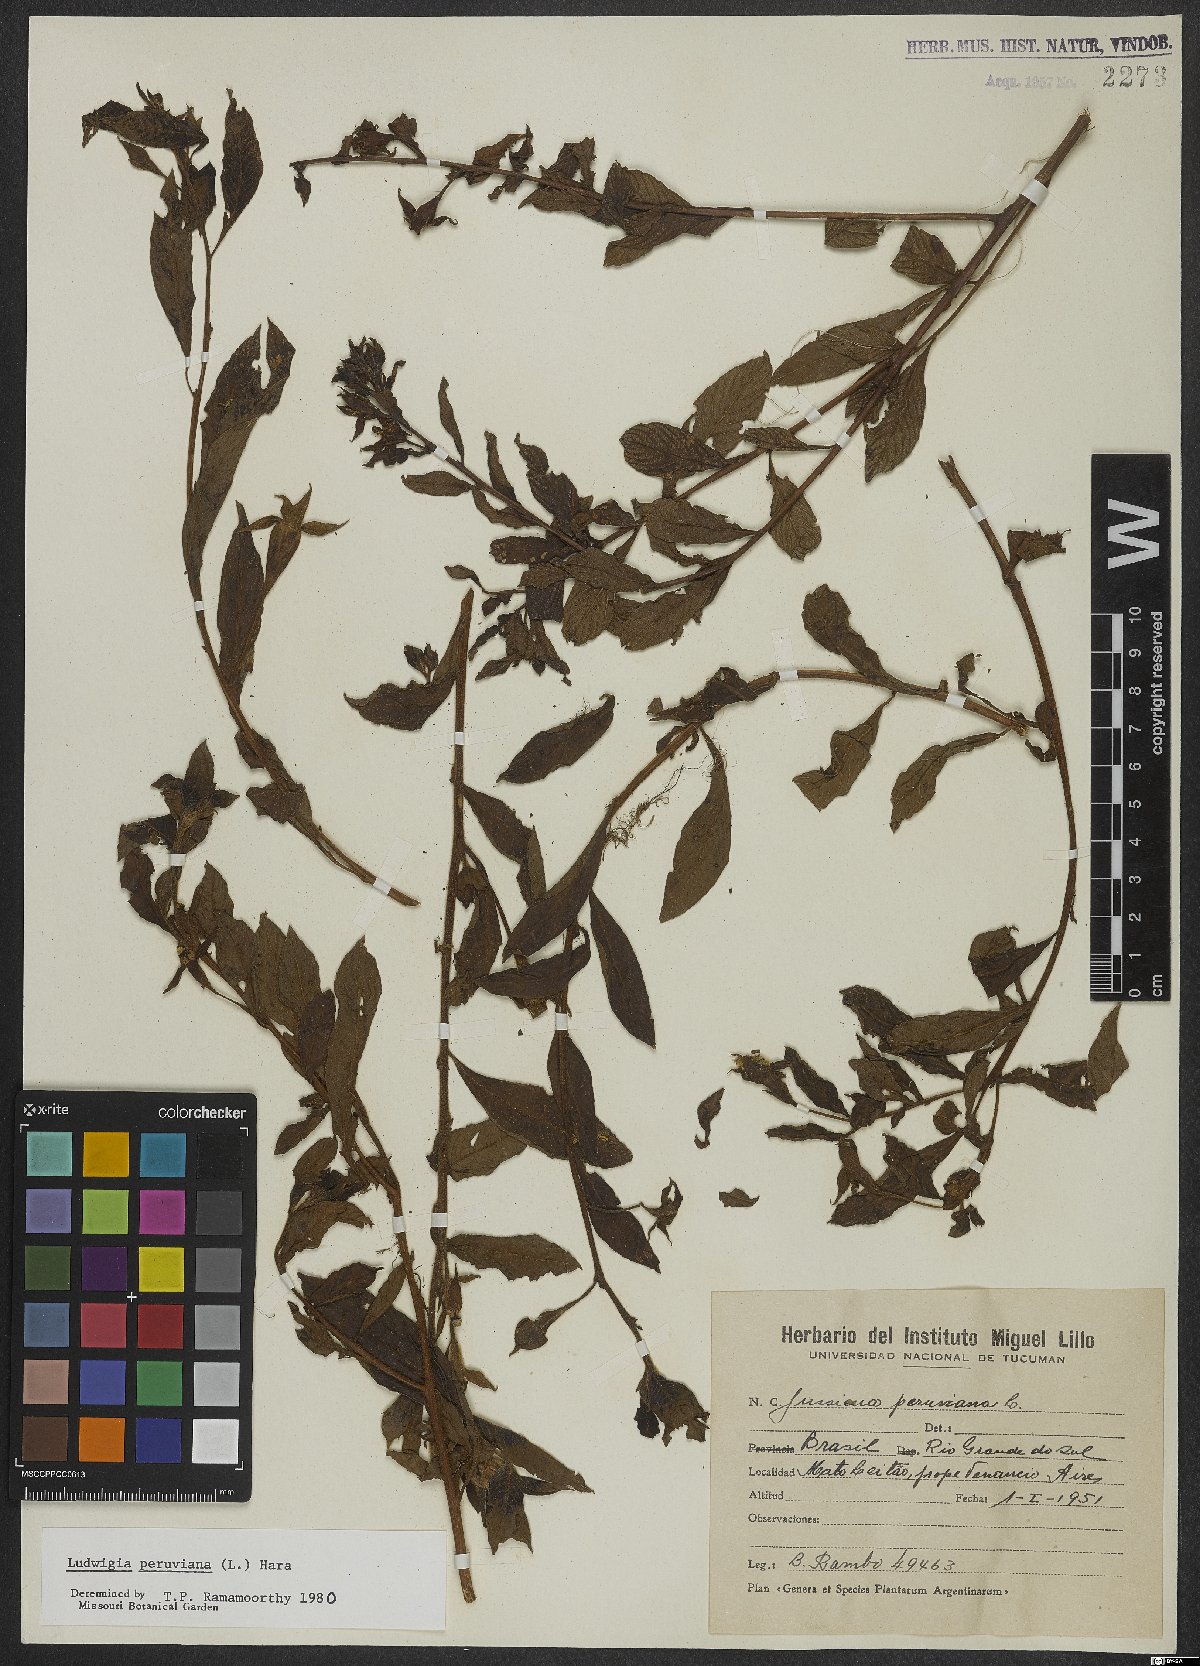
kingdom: Plantae
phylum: Tracheophyta
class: Magnoliopsida
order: Myrtales
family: Onagraceae
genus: Ludwigia
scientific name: Ludwigia peruviana
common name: Peruvian primrose-willow
